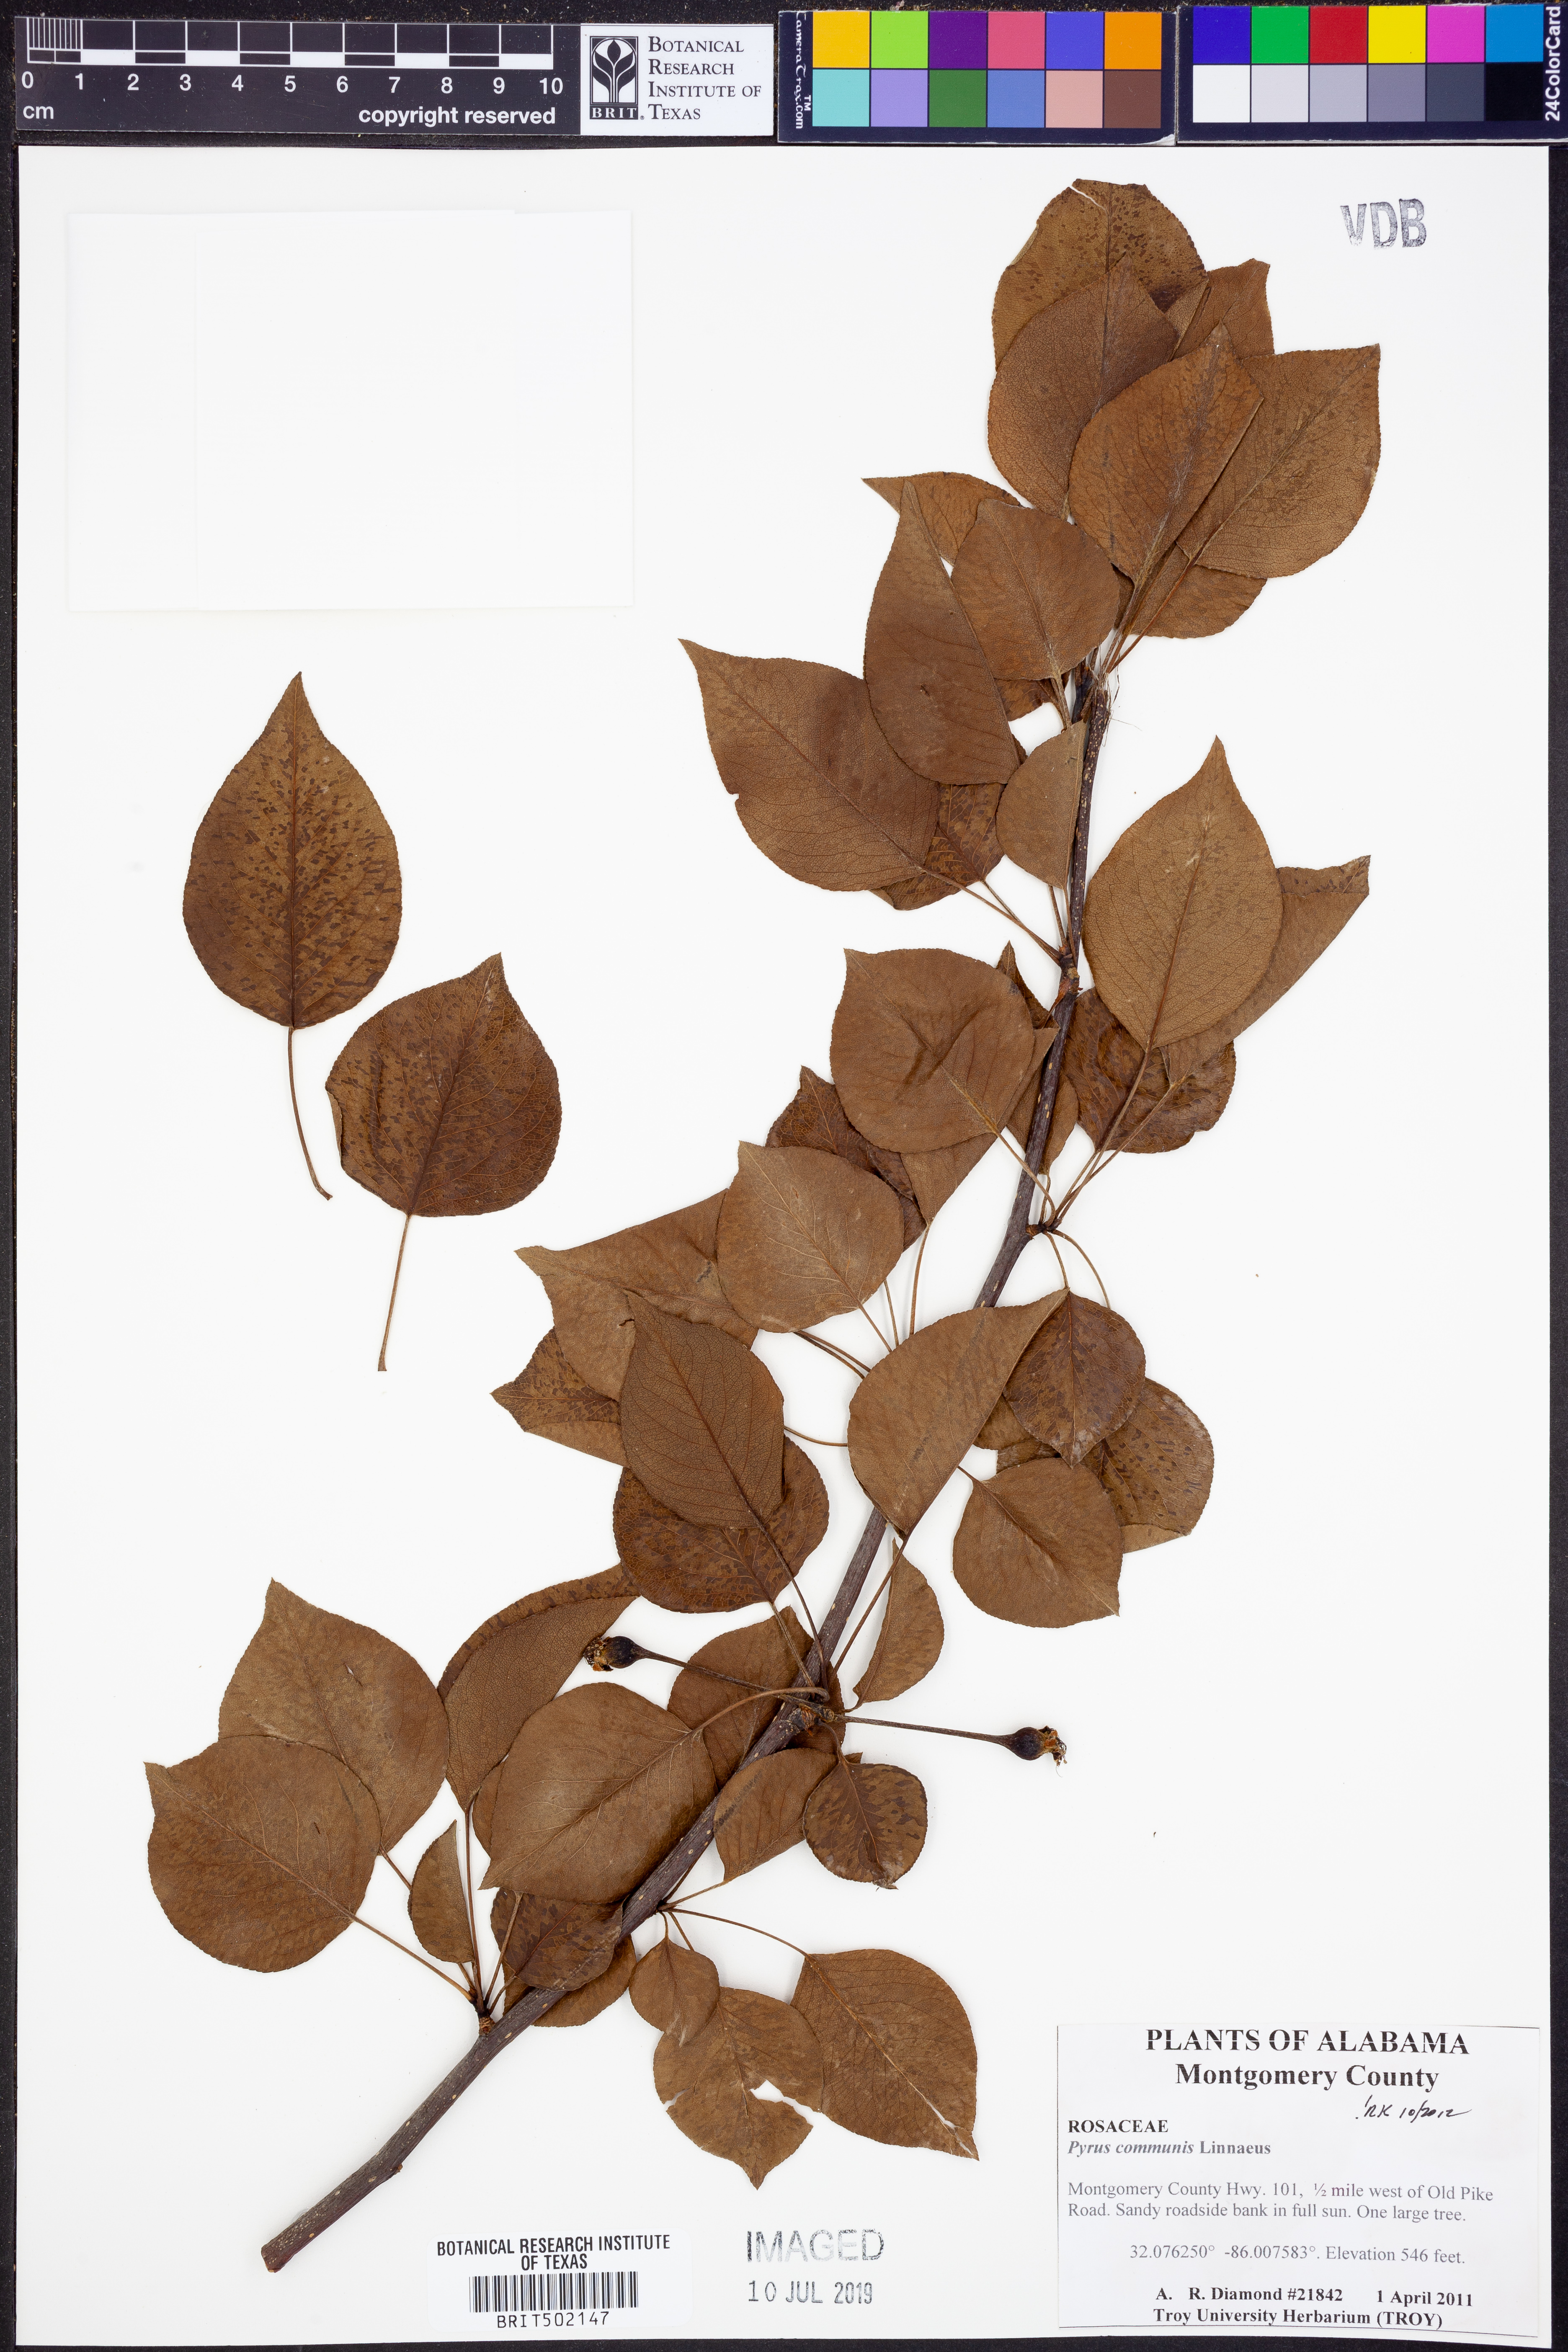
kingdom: Plantae
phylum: Tracheophyta
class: Magnoliopsida
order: Rosales
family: Rosaceae
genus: Pyrus
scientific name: Pyrus communis
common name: Pear
